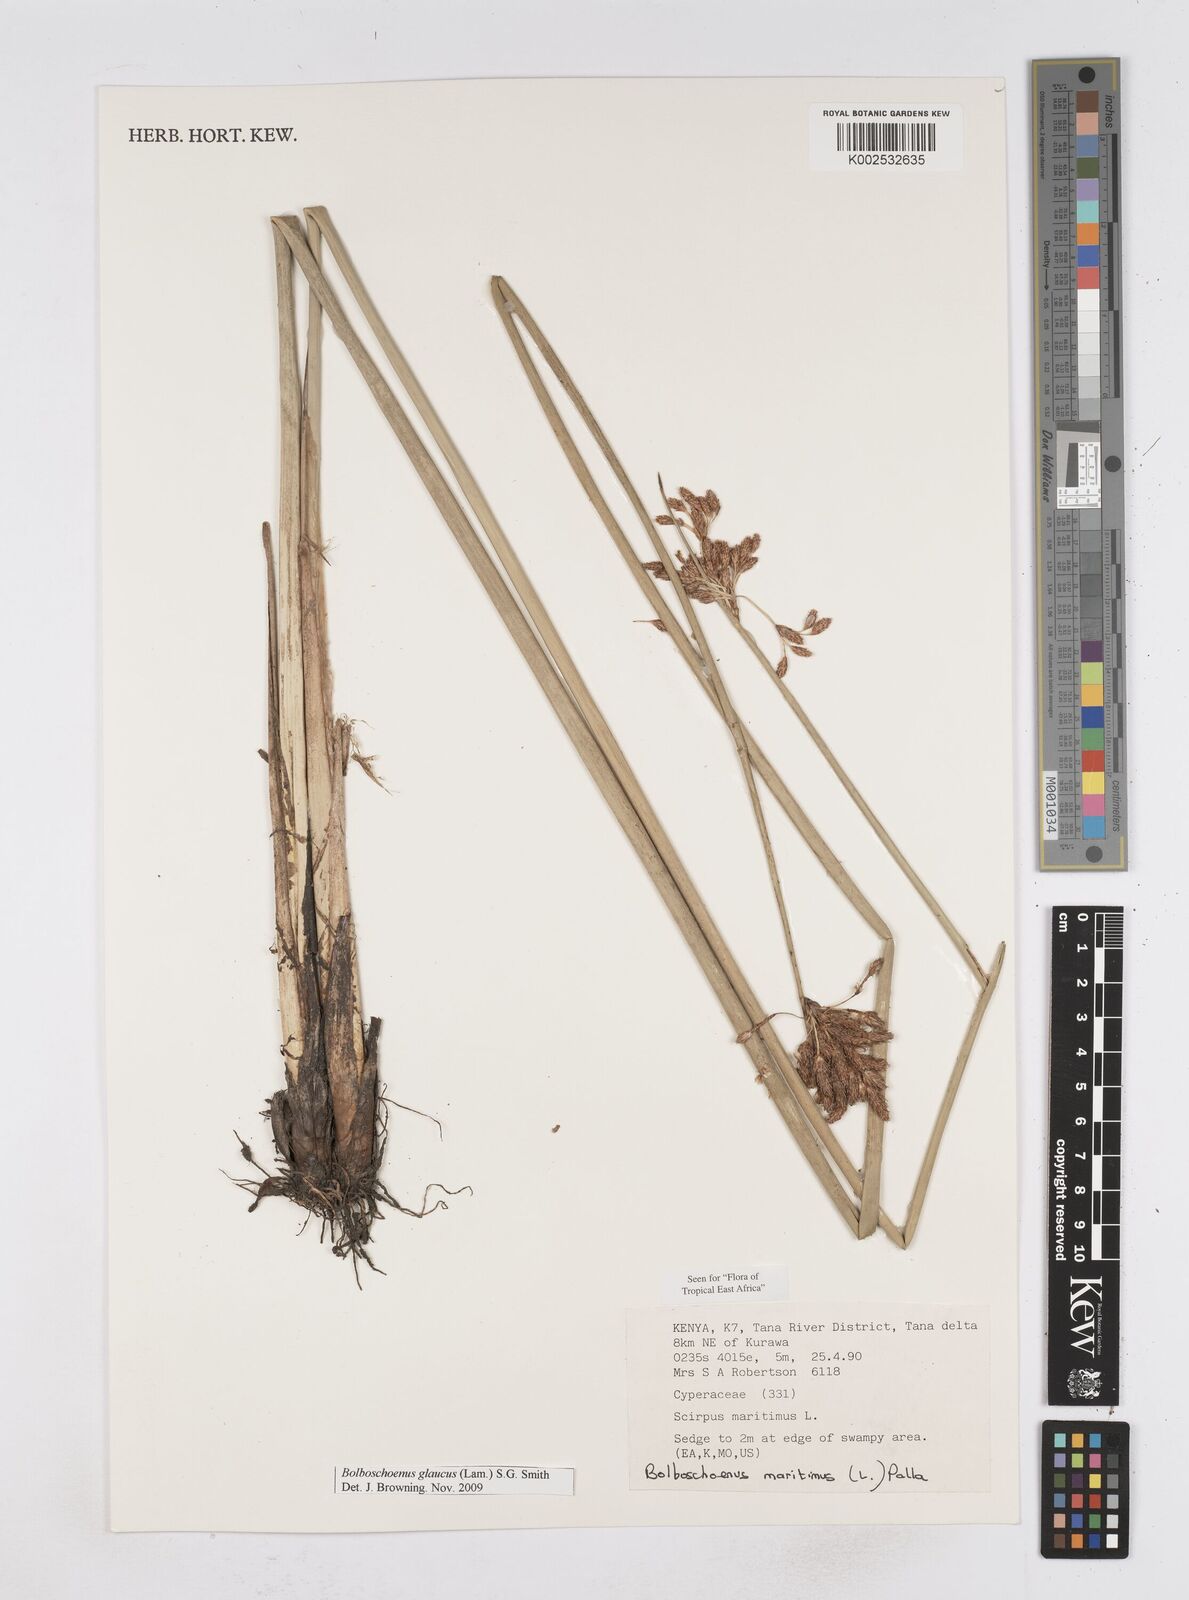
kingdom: Plantae
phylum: Tracheophyta
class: Liliopsida
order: Poales
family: Cyperaceae
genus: Bolboschoenus
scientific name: Bolboschoenus glaucus
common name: Tuberous bulrush
